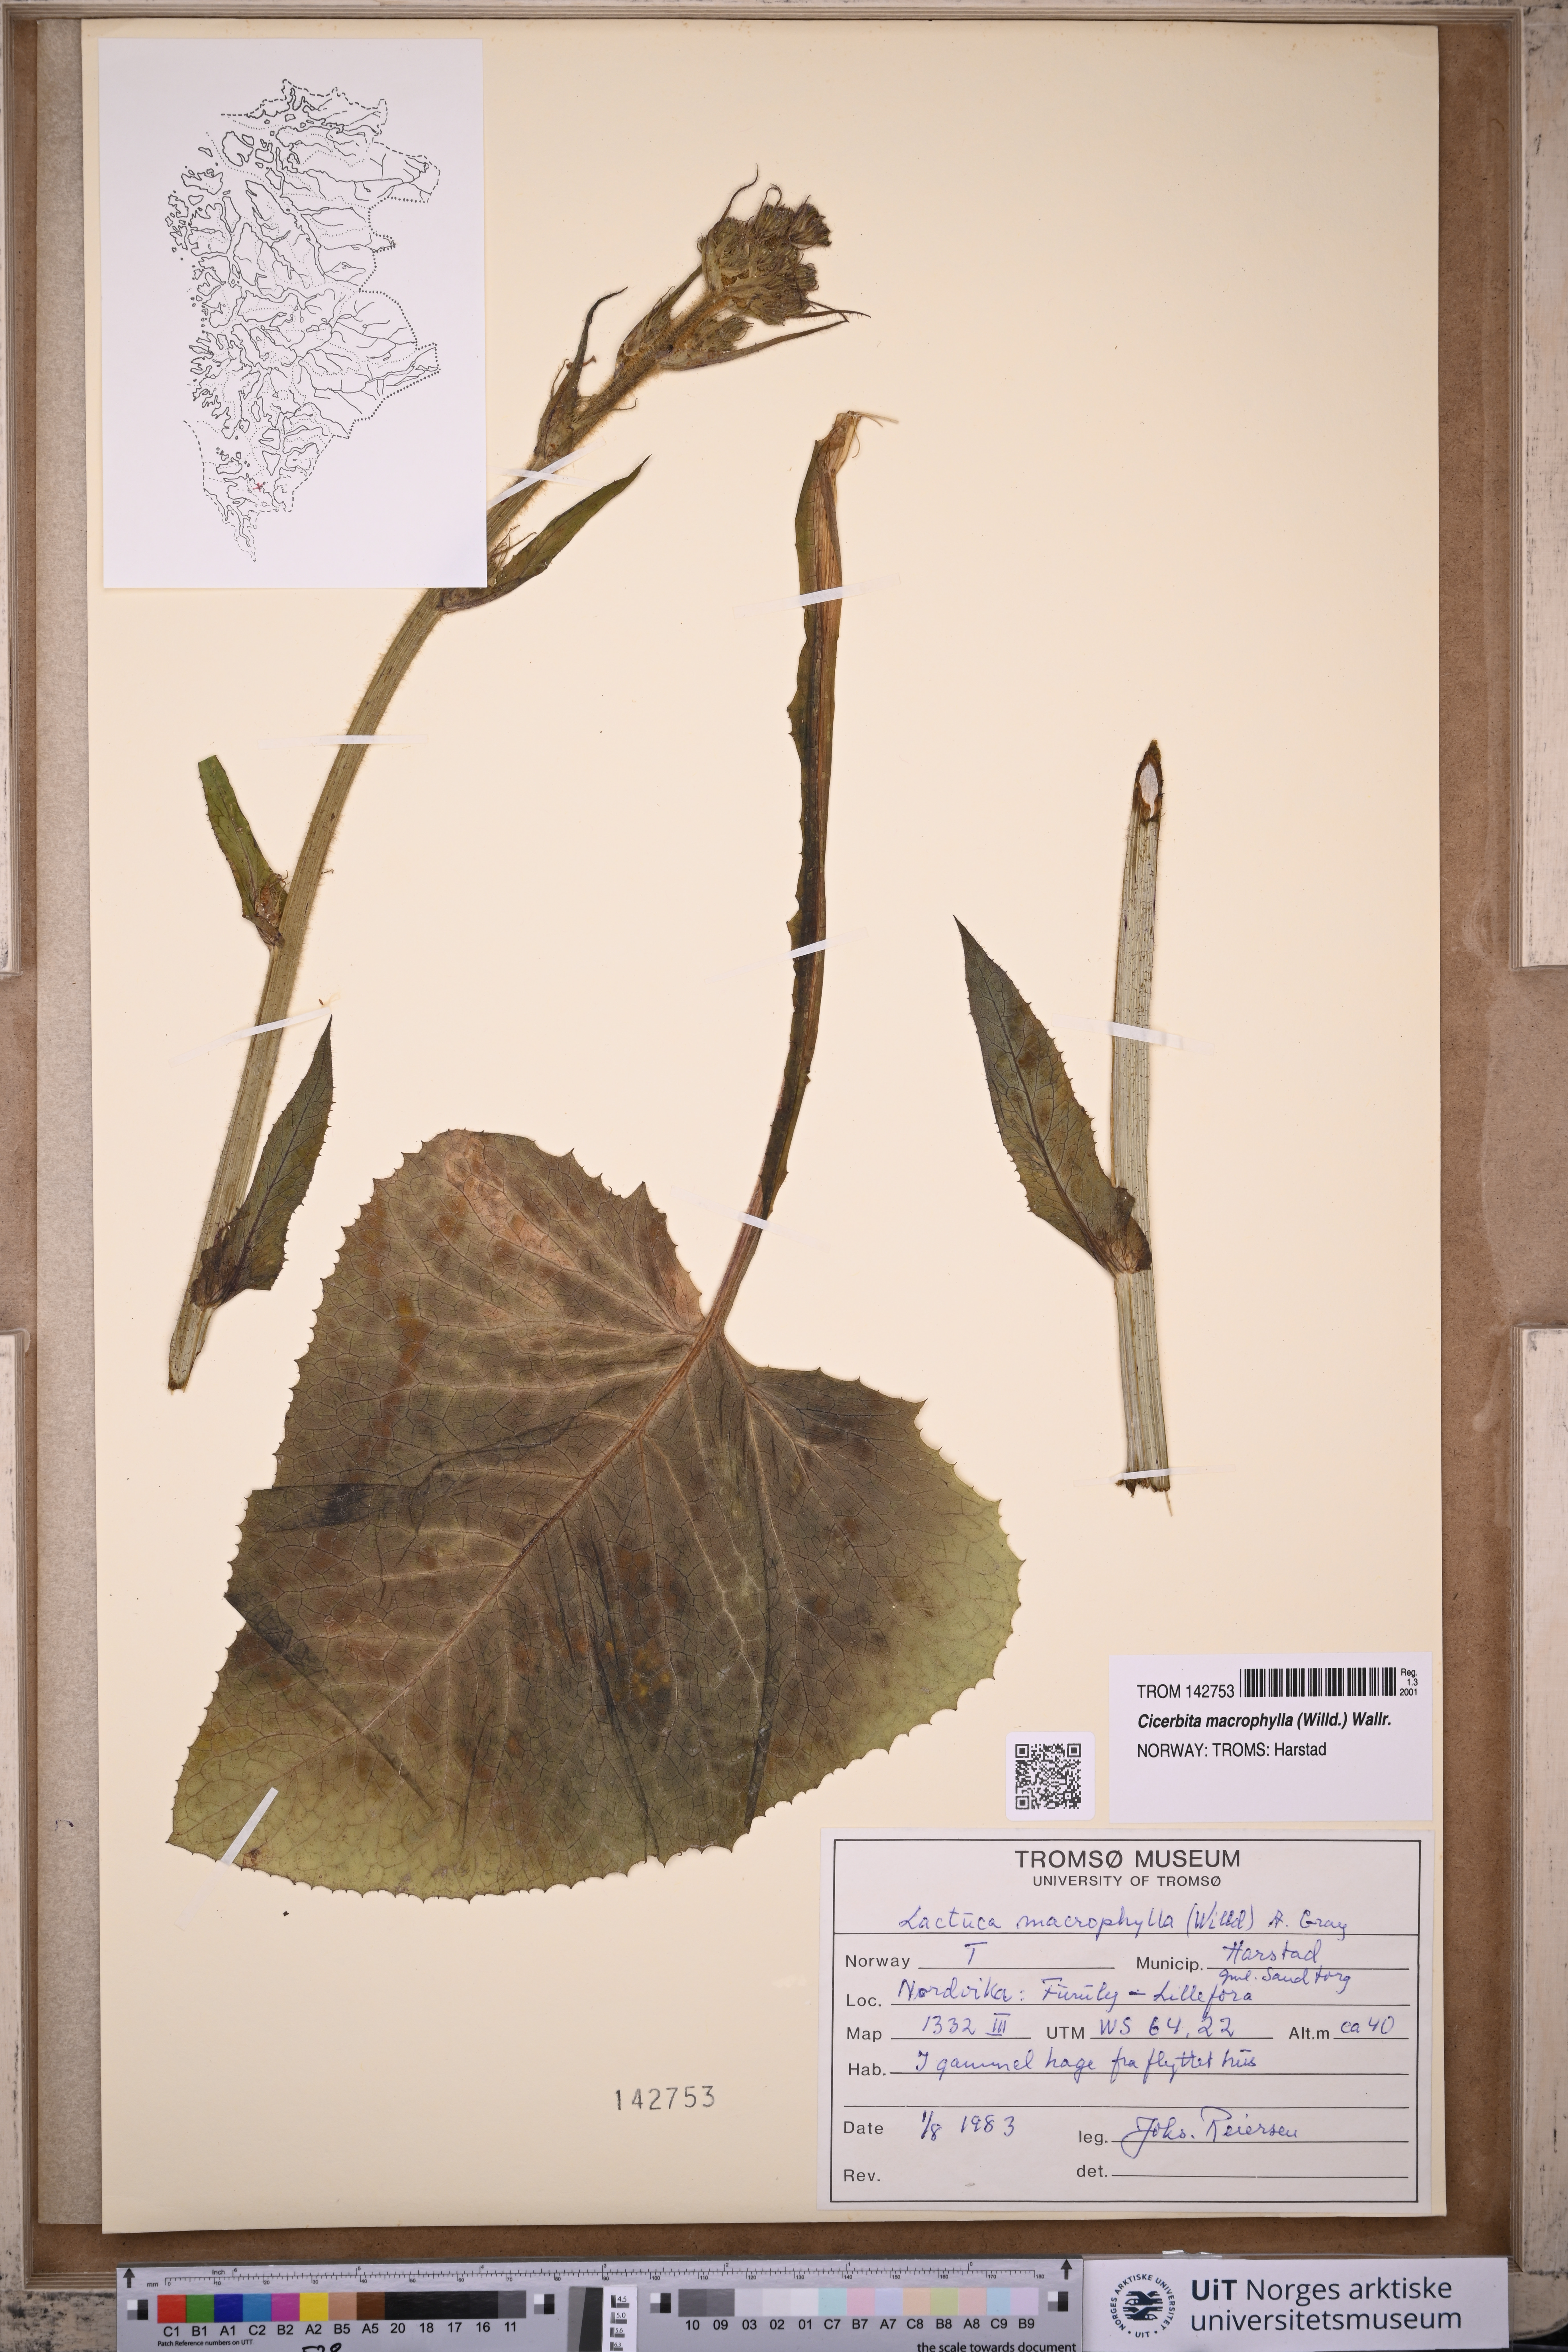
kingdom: Plantae
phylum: Tracheophyta
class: Magnoliopsida
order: Asterales
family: Asteraceae
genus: Lactuca
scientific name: Lactuca macrophylla
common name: Common blue-sow-thistle
